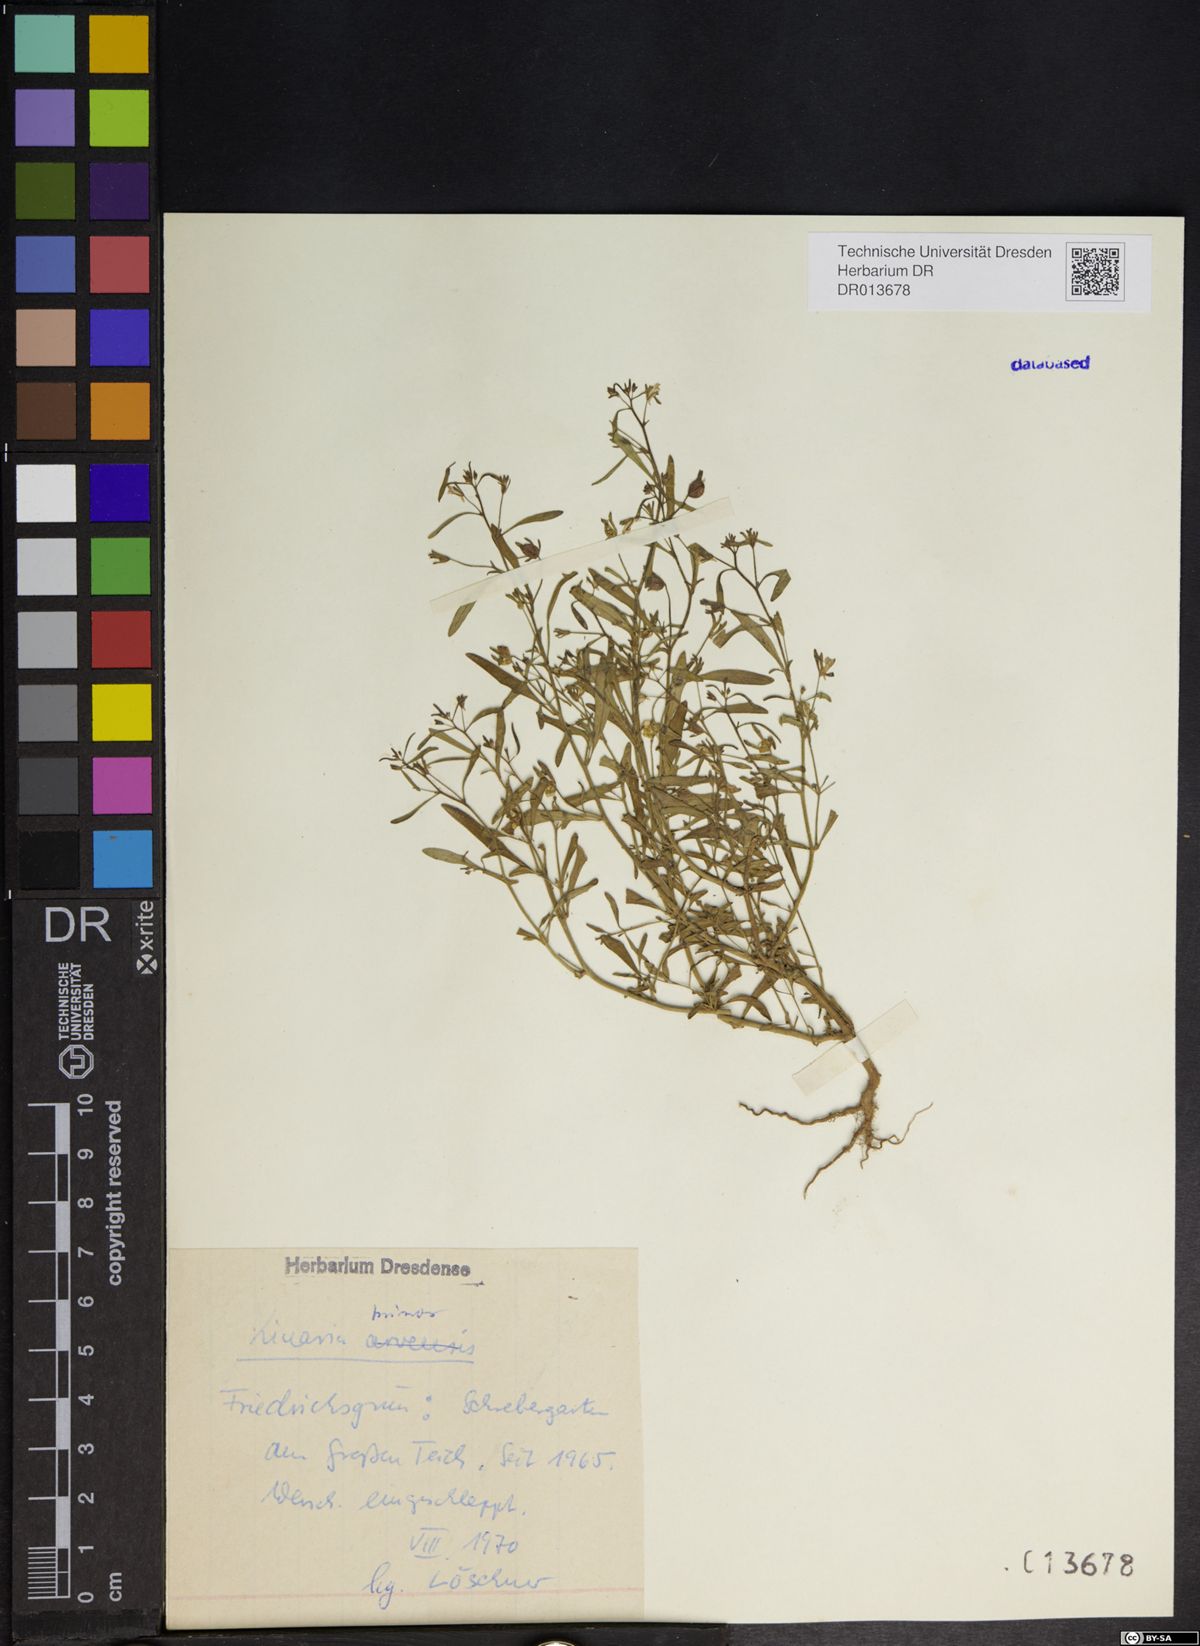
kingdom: Plantae
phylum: Tracheophyta
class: Magnoliopsida
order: Lamiales
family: Plantaginaceae
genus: Chaenorhinum
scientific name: Chaenorhinum minus
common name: Dwarf snapdragon
